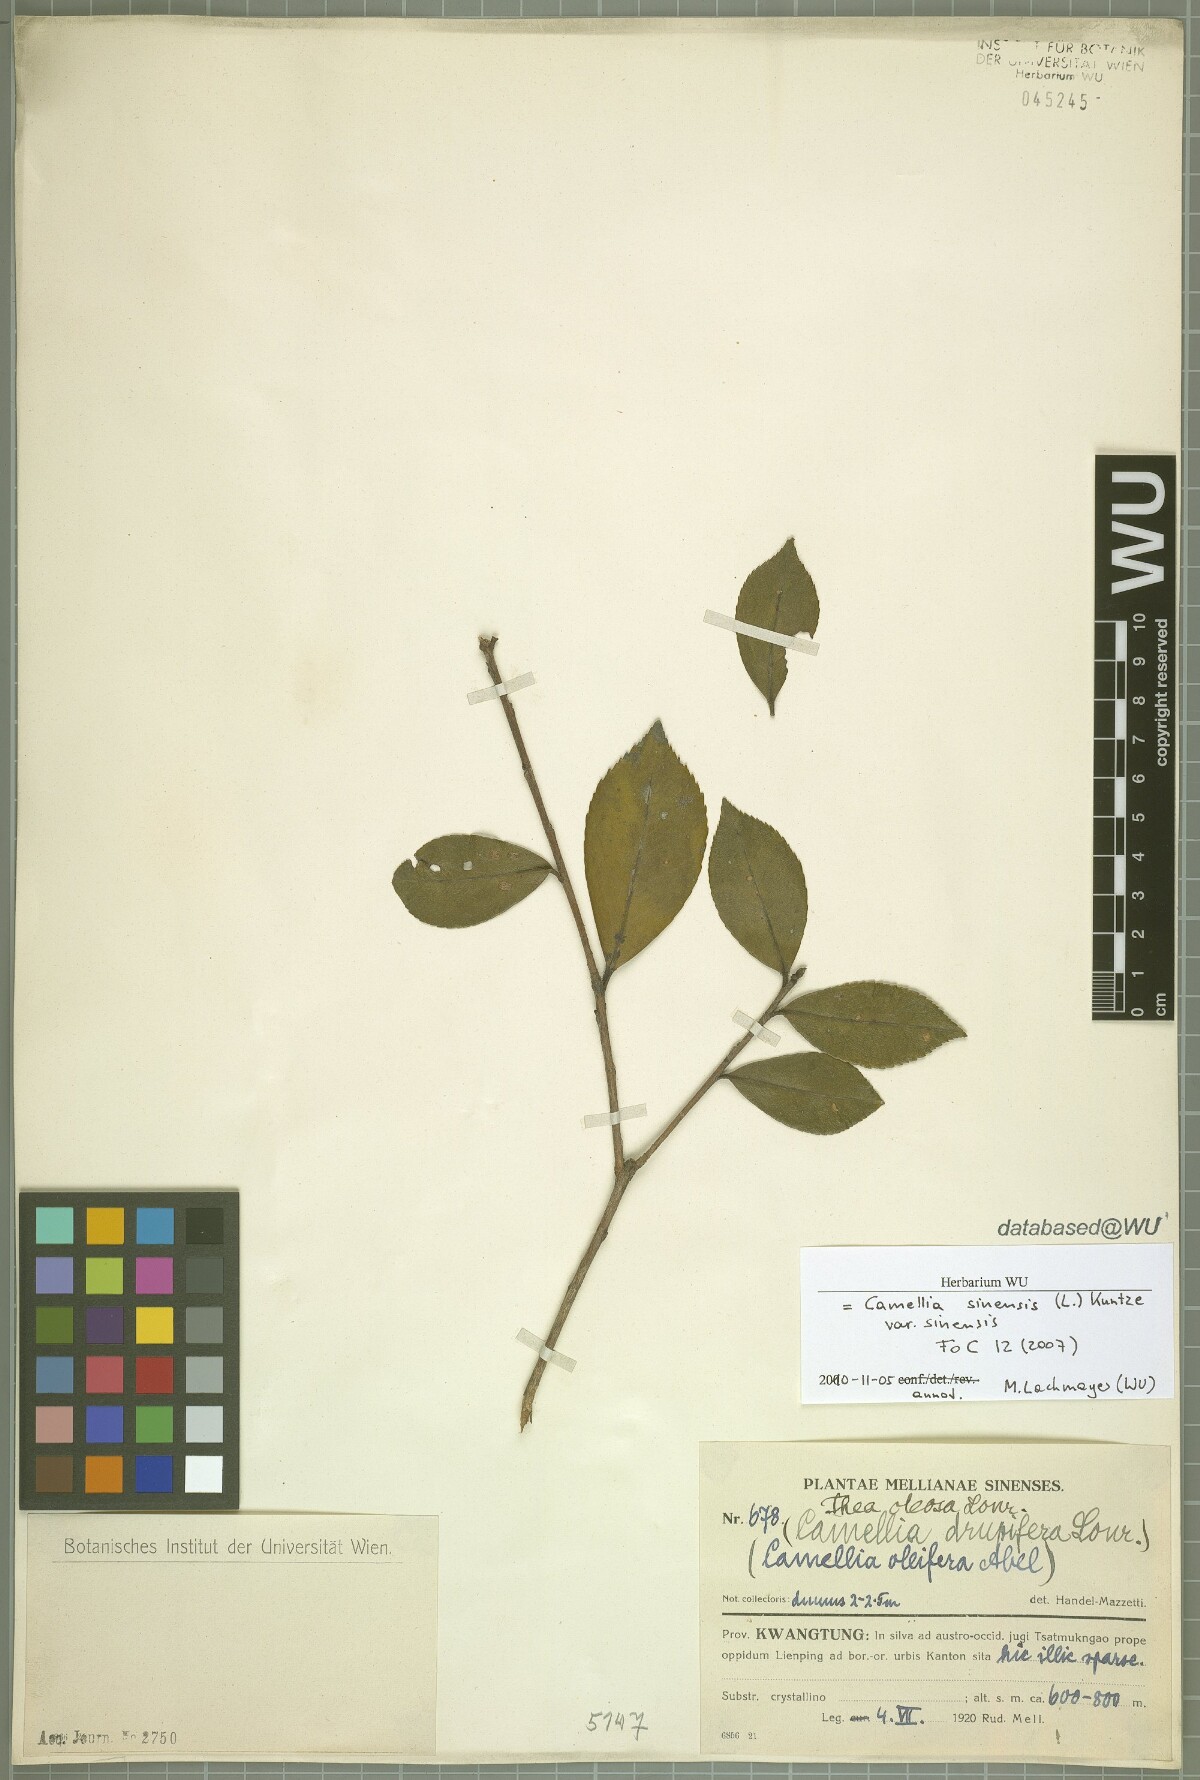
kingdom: Plantae
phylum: Tracheophyta
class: Magnoliopsida
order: Ericales
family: Theaceae
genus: Camellia
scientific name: Camellia sinensis
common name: Tea
